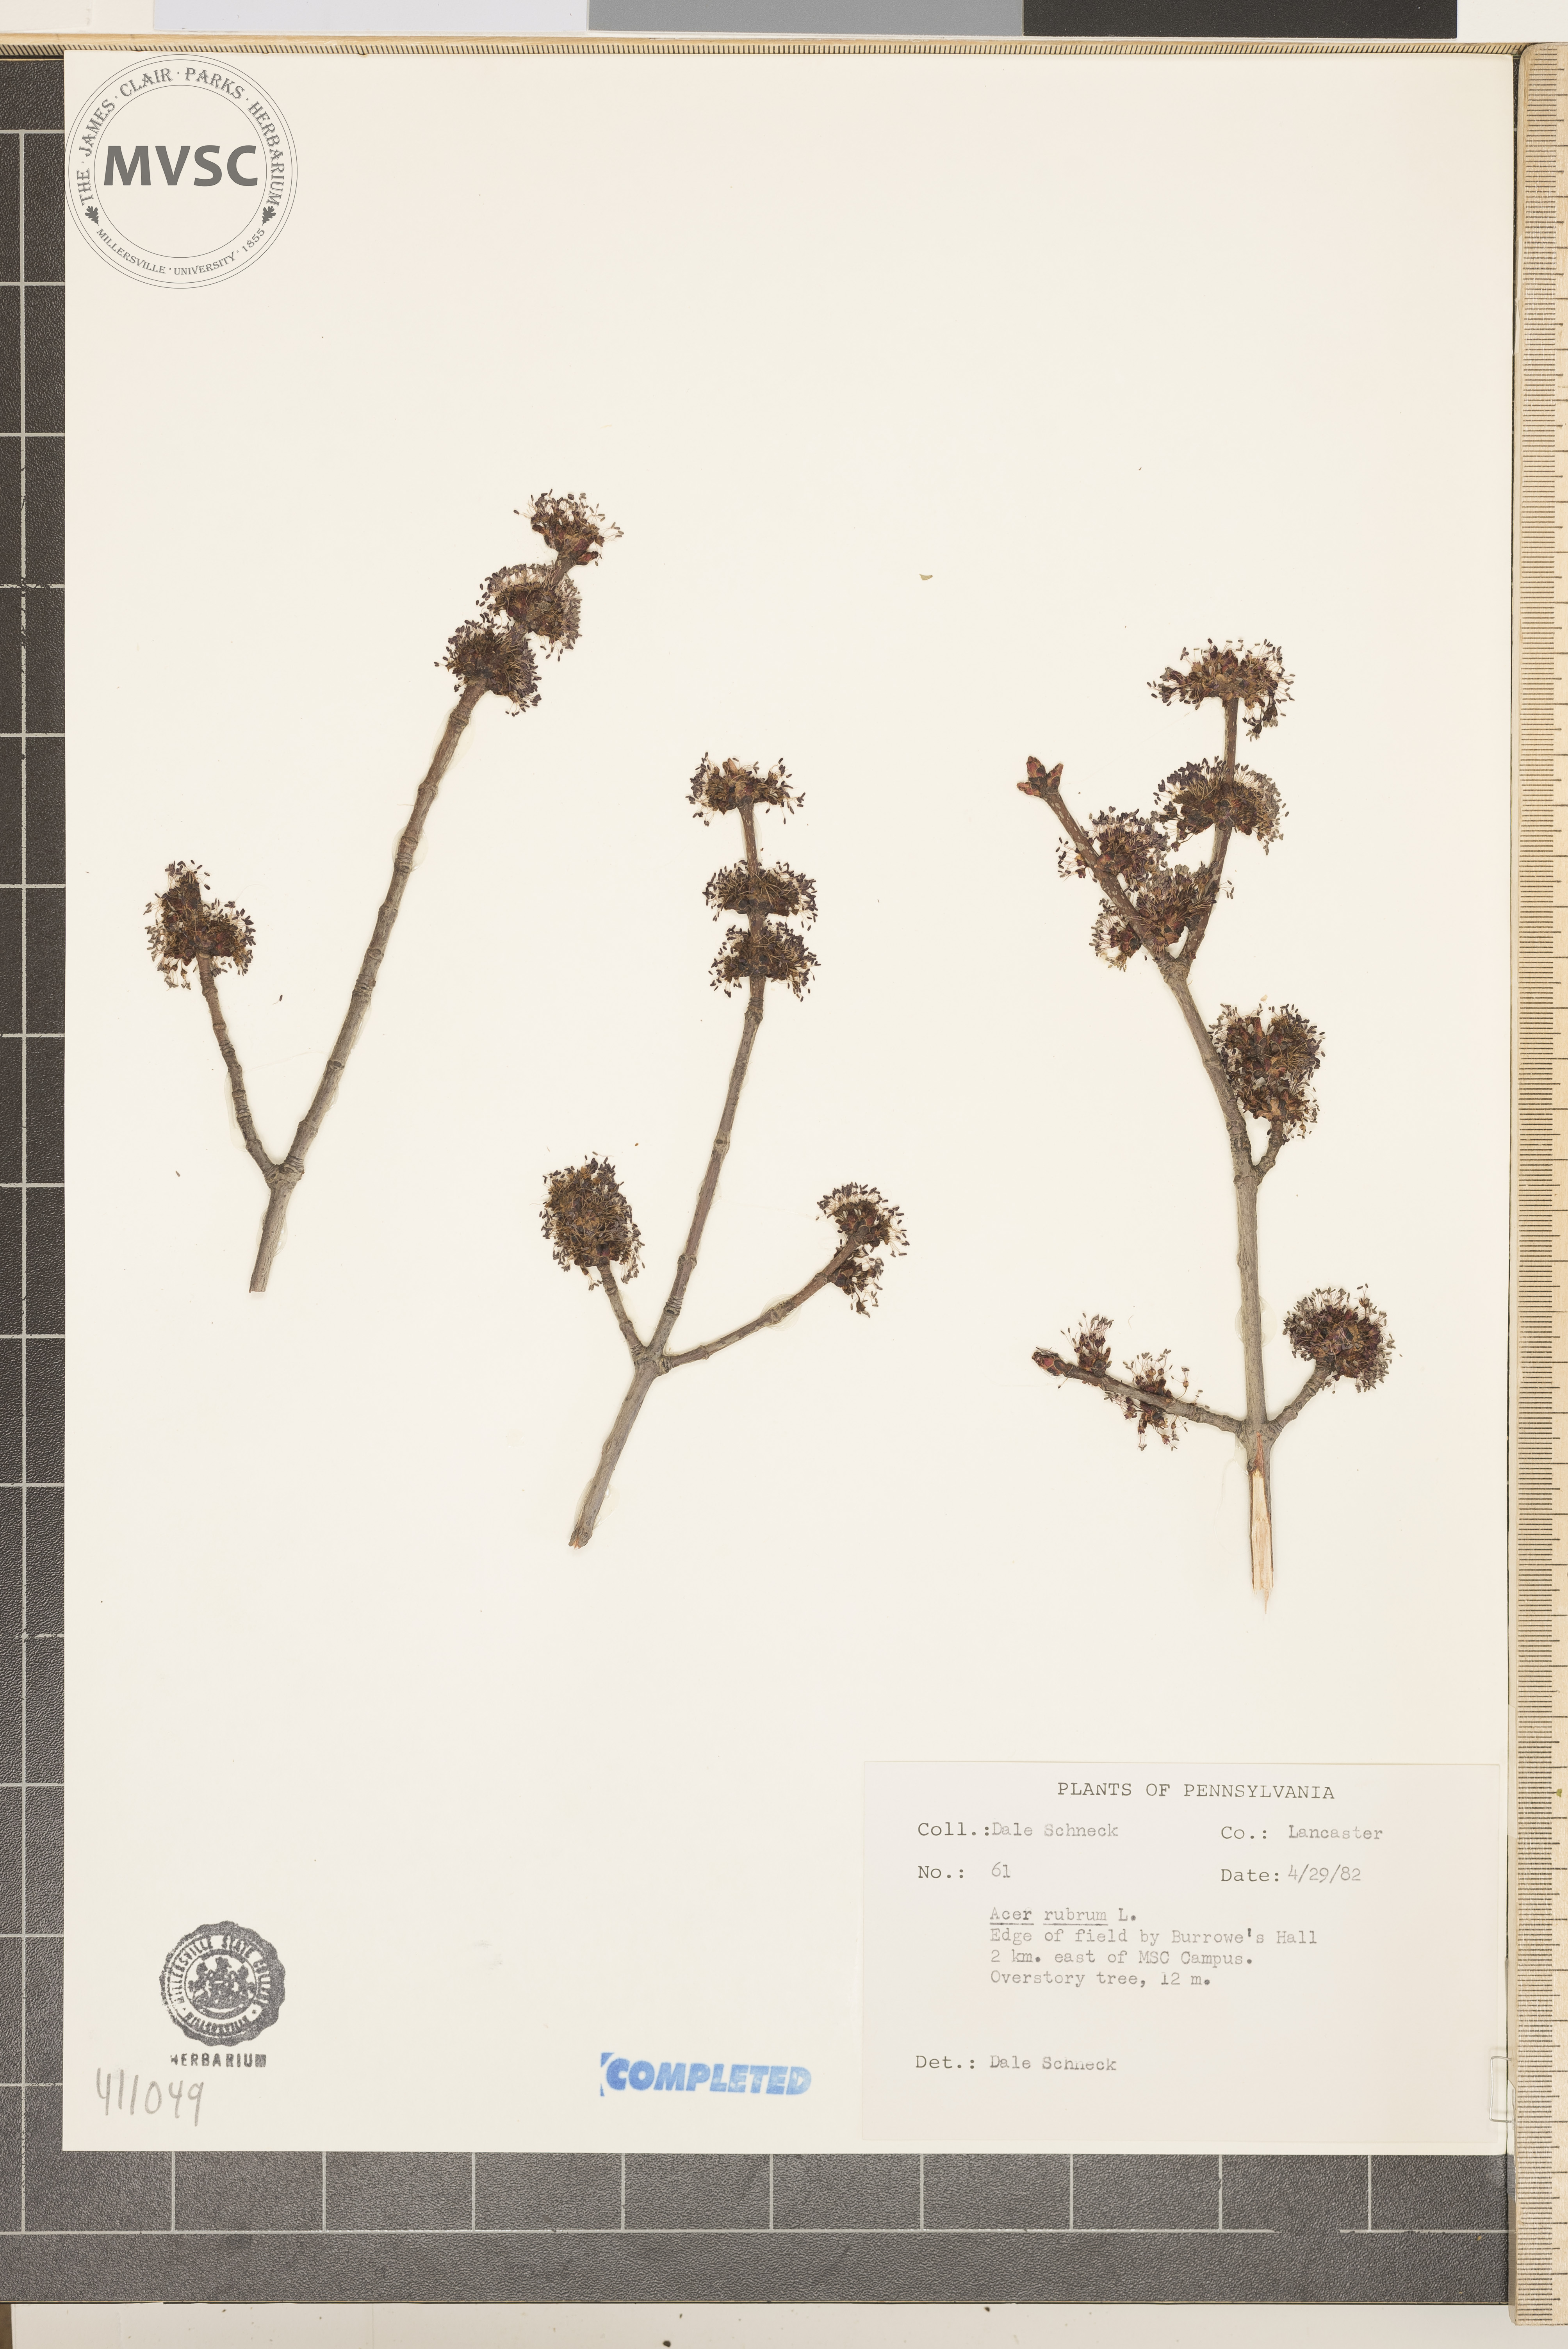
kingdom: Plantae
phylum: Tracheophyta
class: Magnoliopsida
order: Sapindales
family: Sapindaceae
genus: Acer
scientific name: Acer rubrum
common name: Red maple
